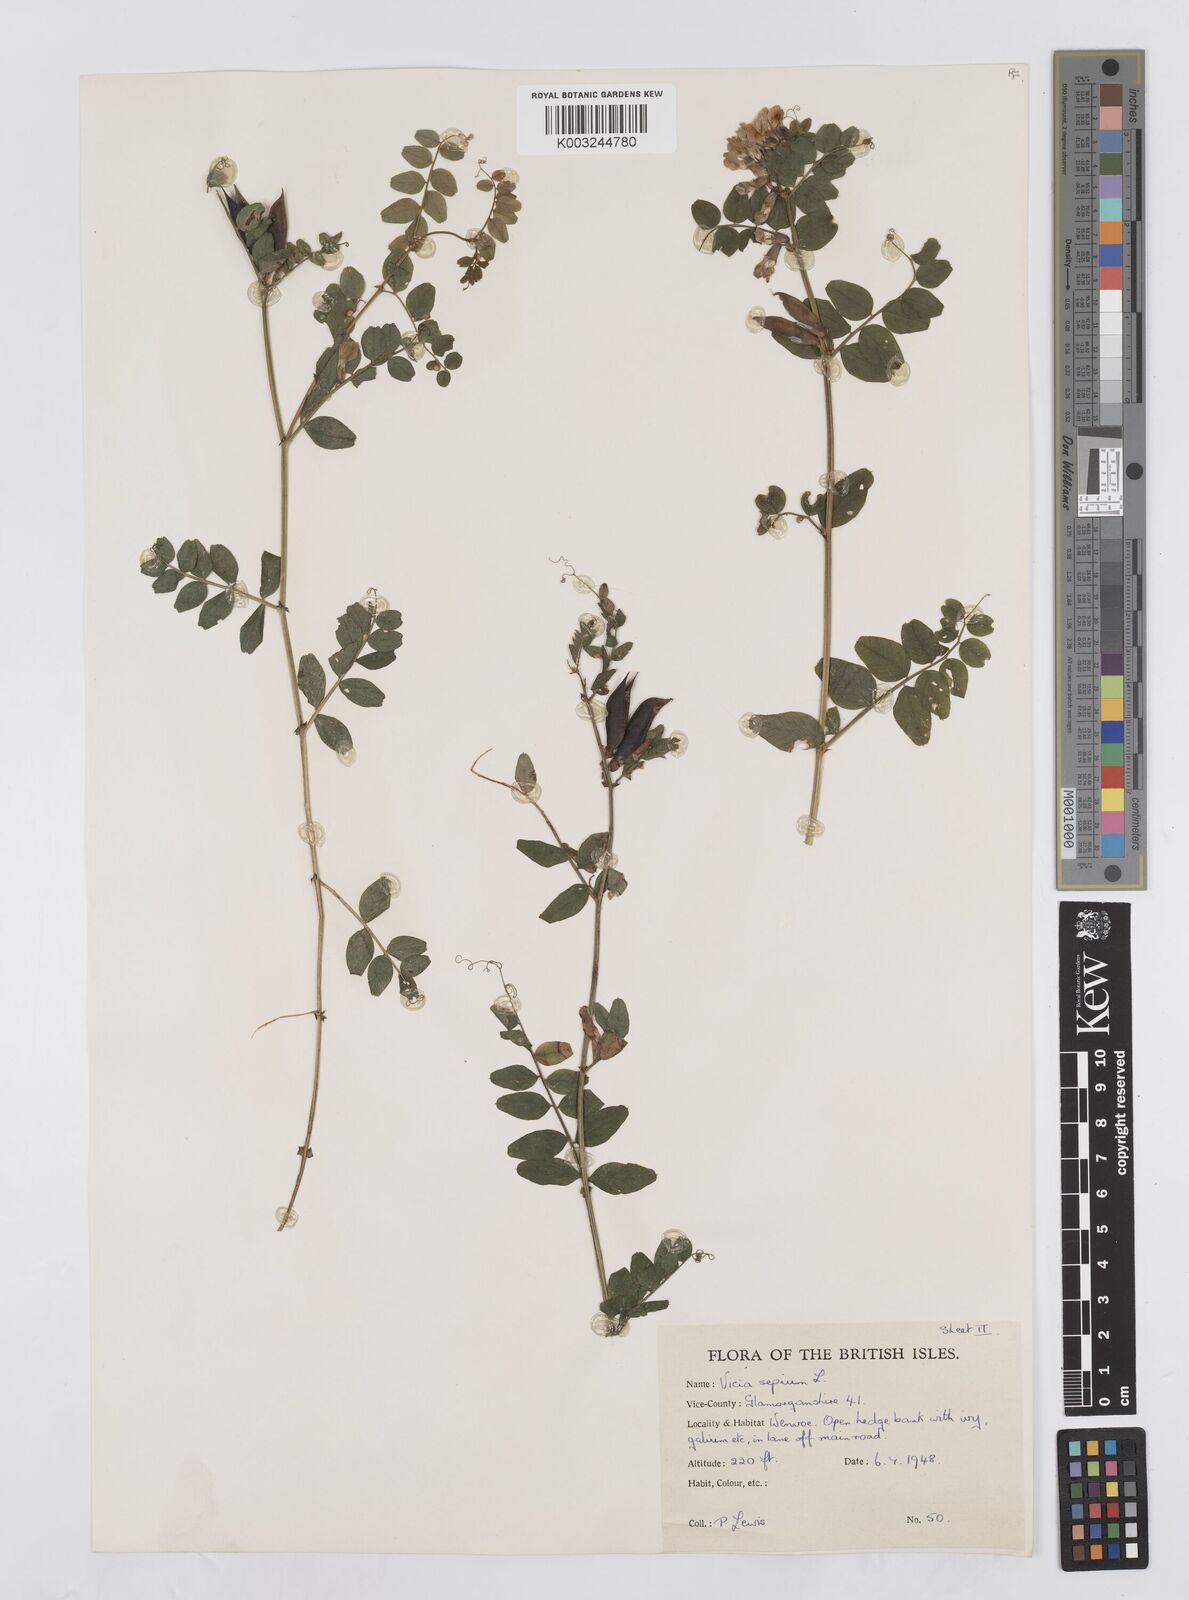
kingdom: Plantae
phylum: Tracheophyta
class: Magnoliopsida
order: Fabales
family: Fabaceae
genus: Vicia
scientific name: Vicia sepium
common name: Bush vetch
